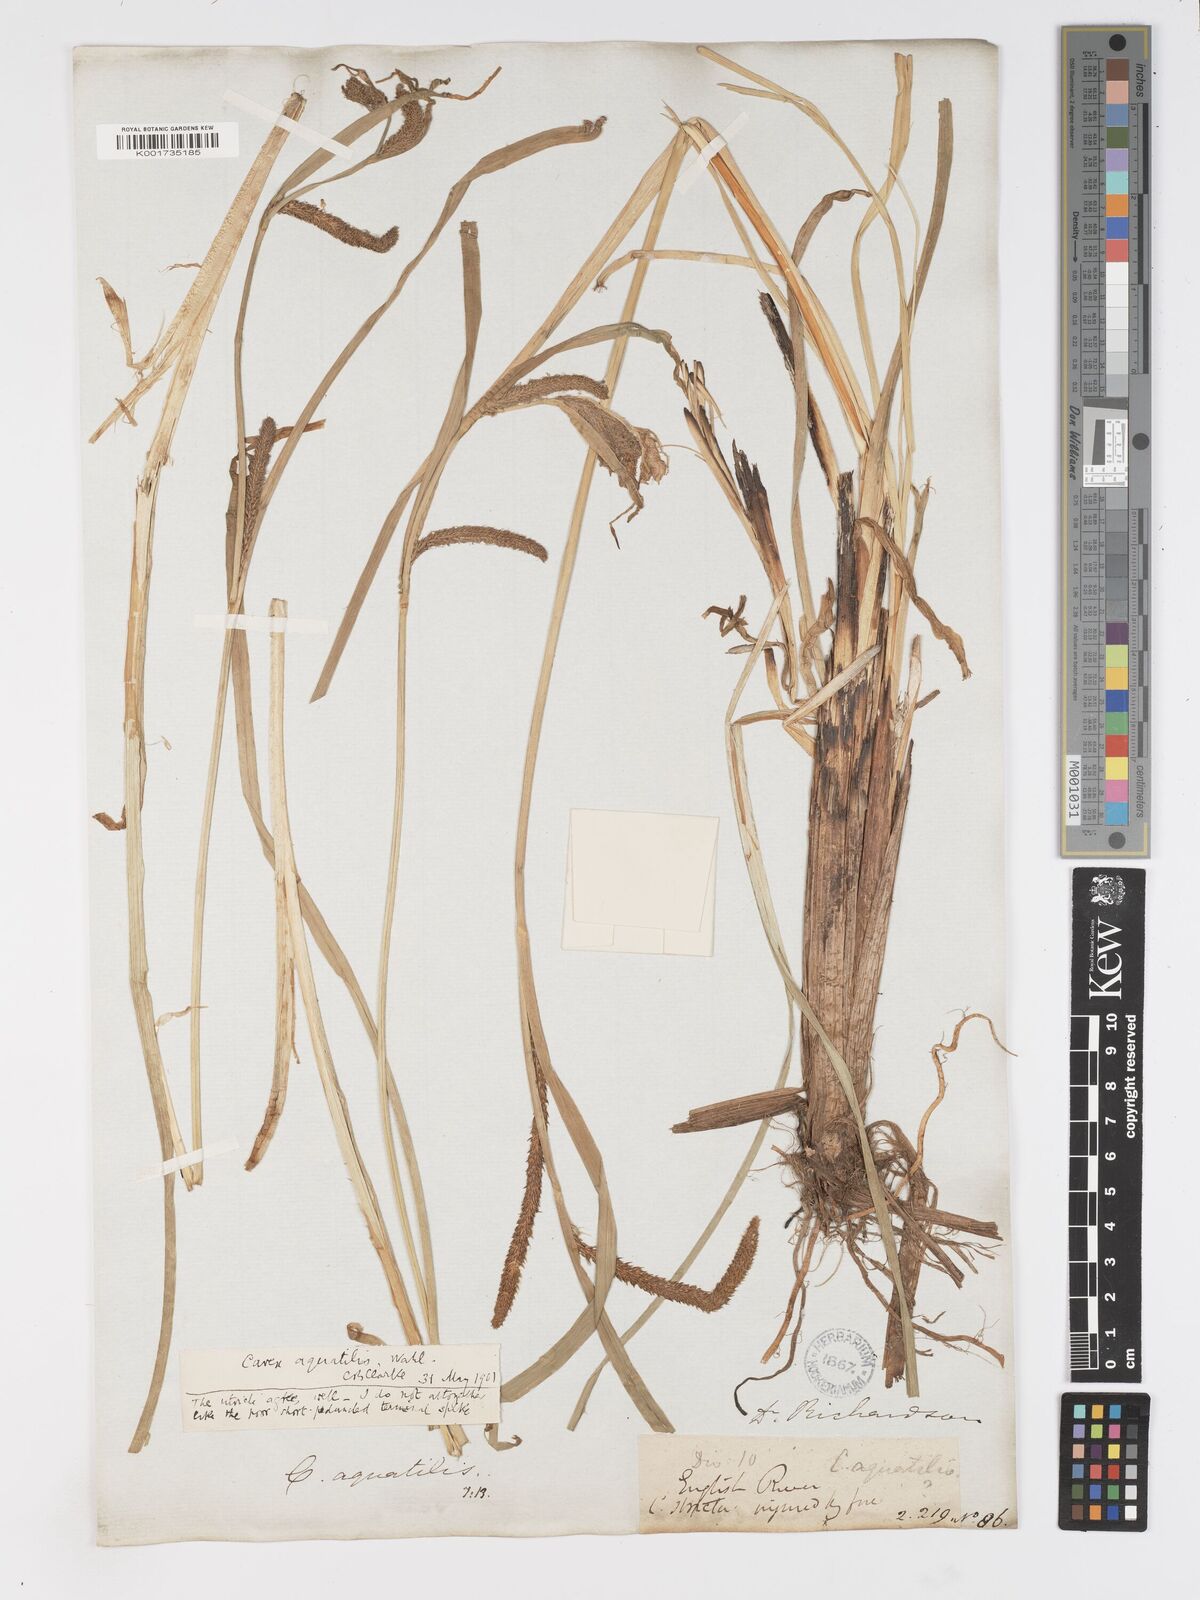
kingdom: Plantae
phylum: Tracheophyta
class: Liliopsida
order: Poales
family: Cyperaceae
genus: Carex
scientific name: Carex
